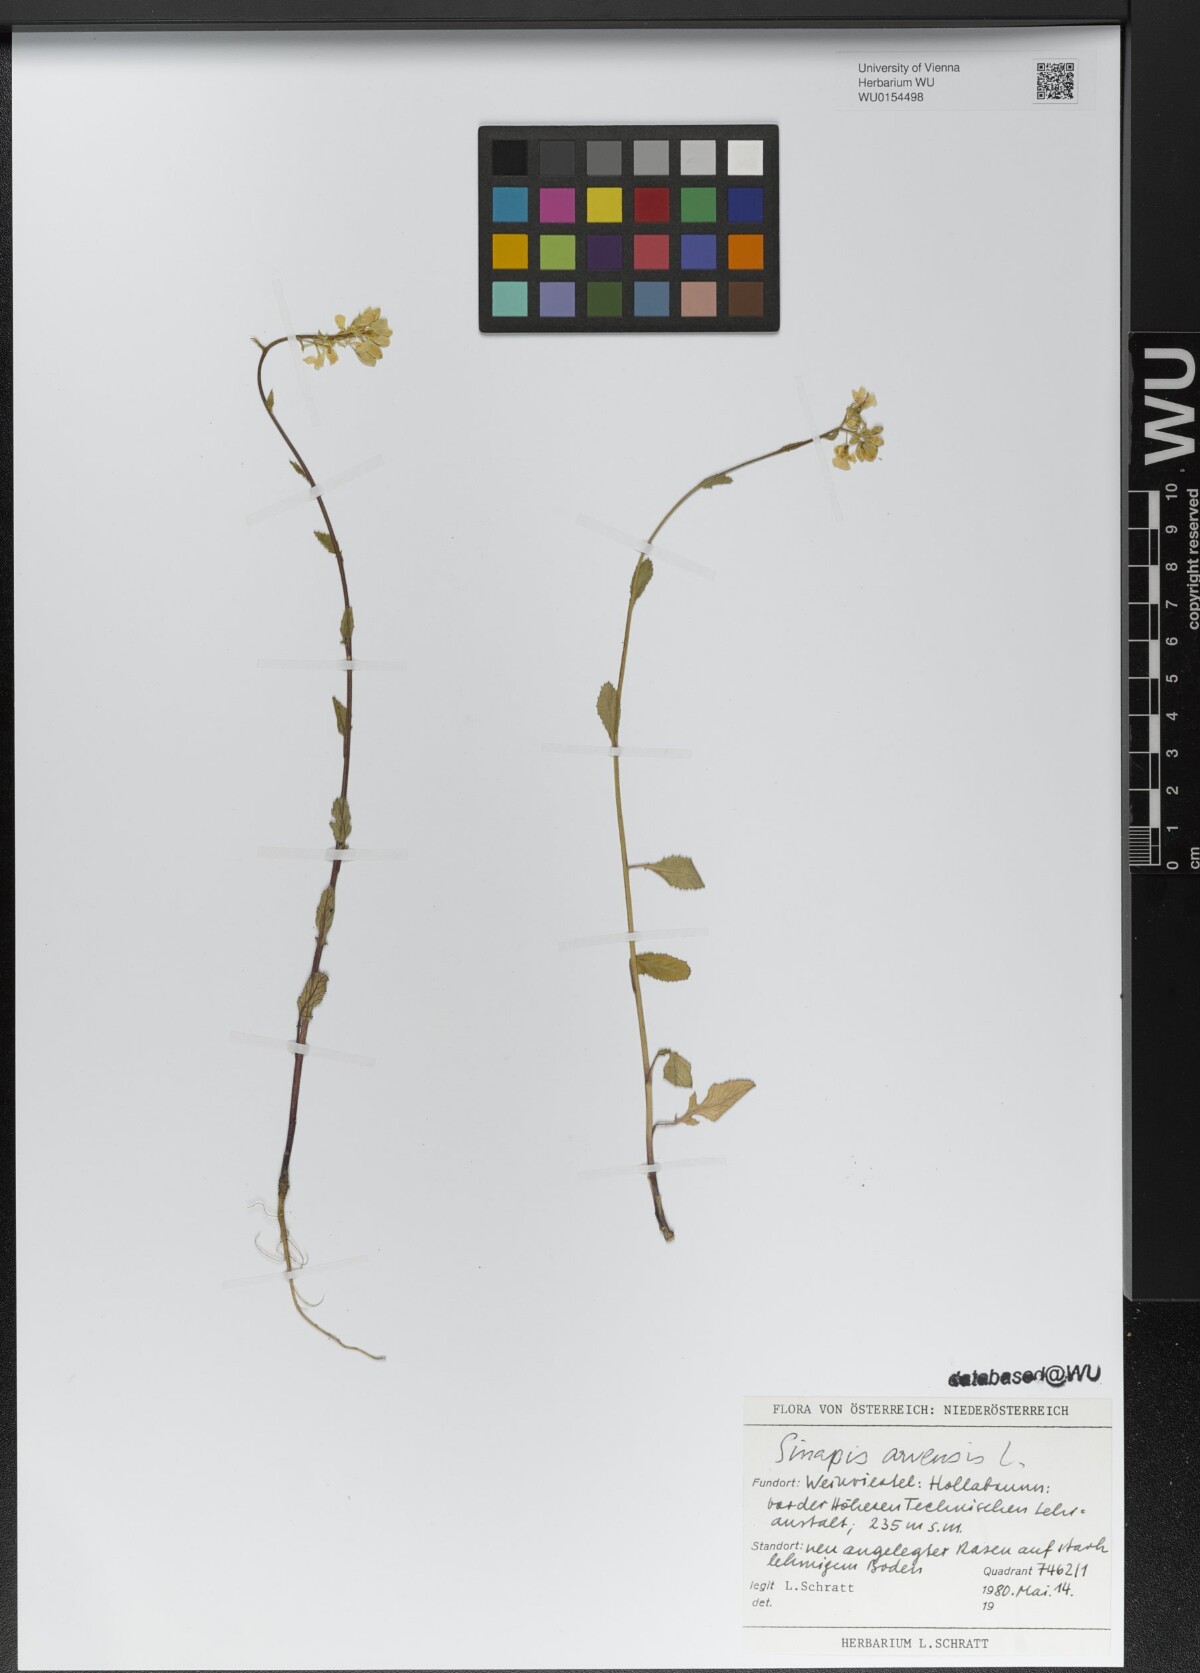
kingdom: Plantae
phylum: Tracheophyta
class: Magnoliopsida
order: Brassicales
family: Brassicaceae
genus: Sinapis
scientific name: Sinapis arvensis
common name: Charlock
